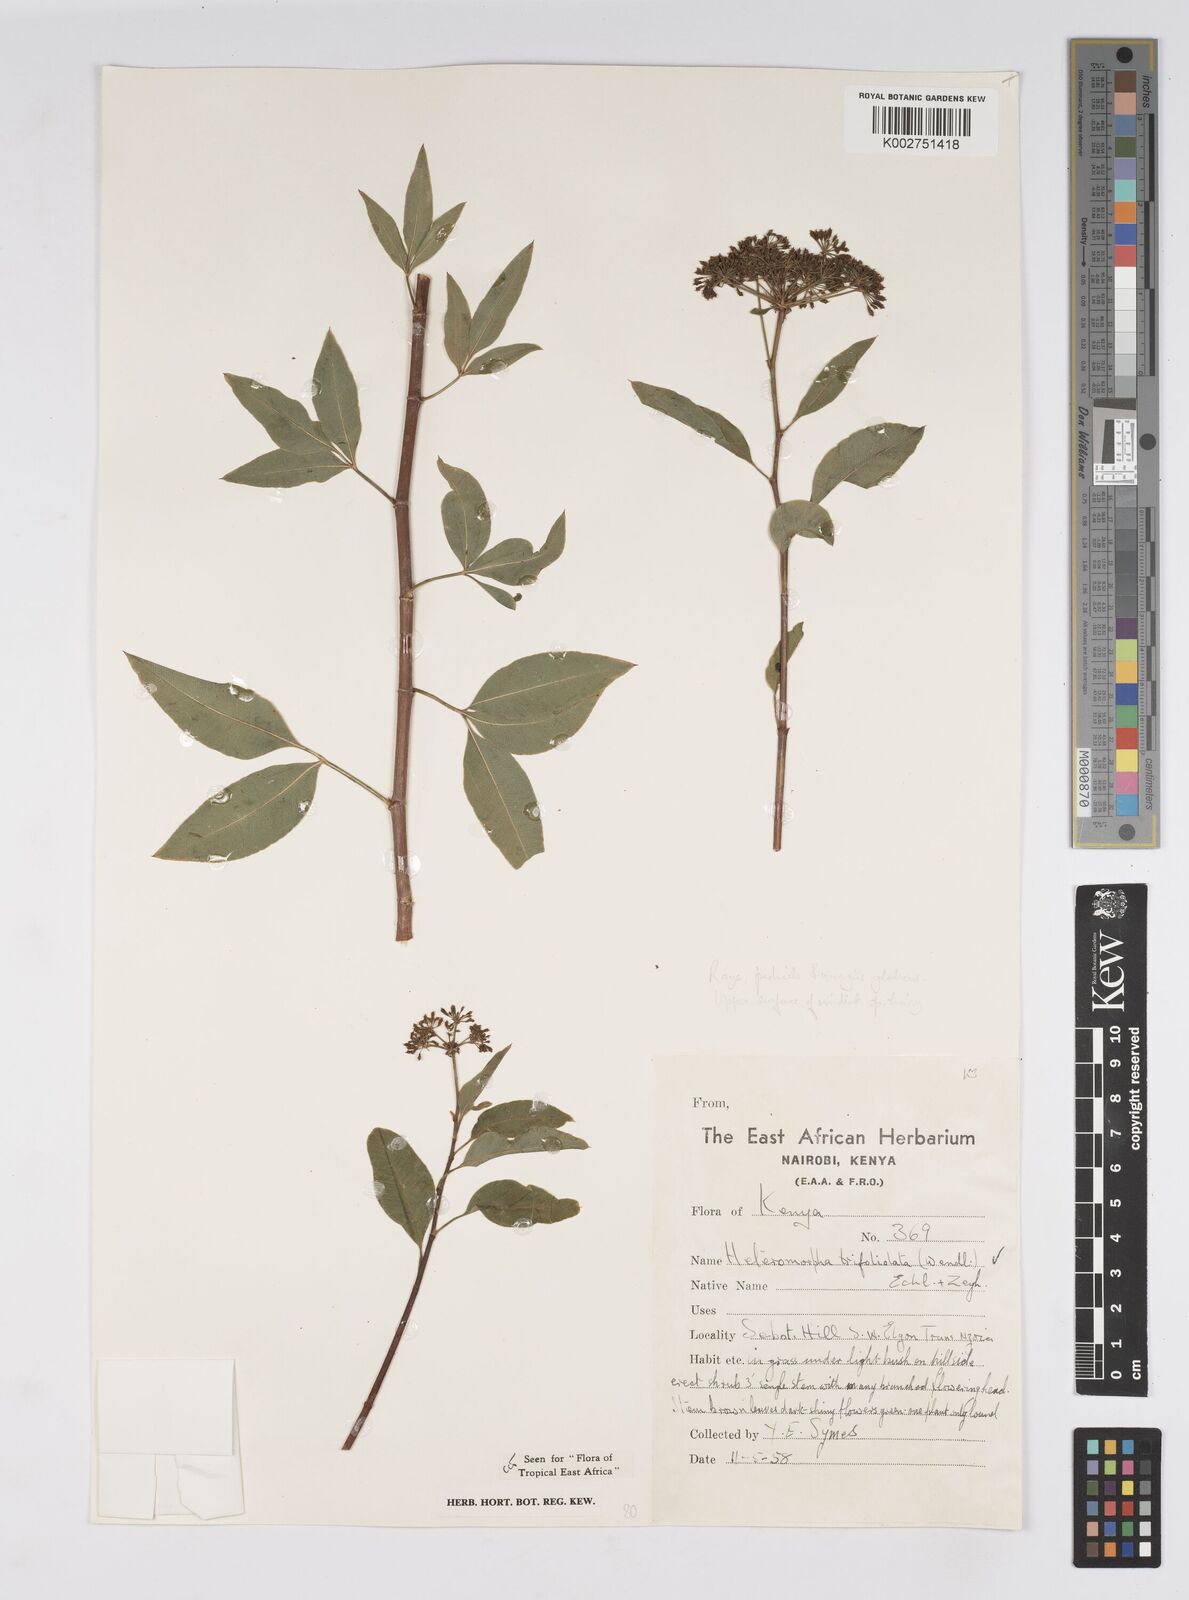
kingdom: Plantae
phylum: Tracheophyta
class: Magnoliopsida
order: Apiales
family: Apiaceae
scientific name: Apiaceae
